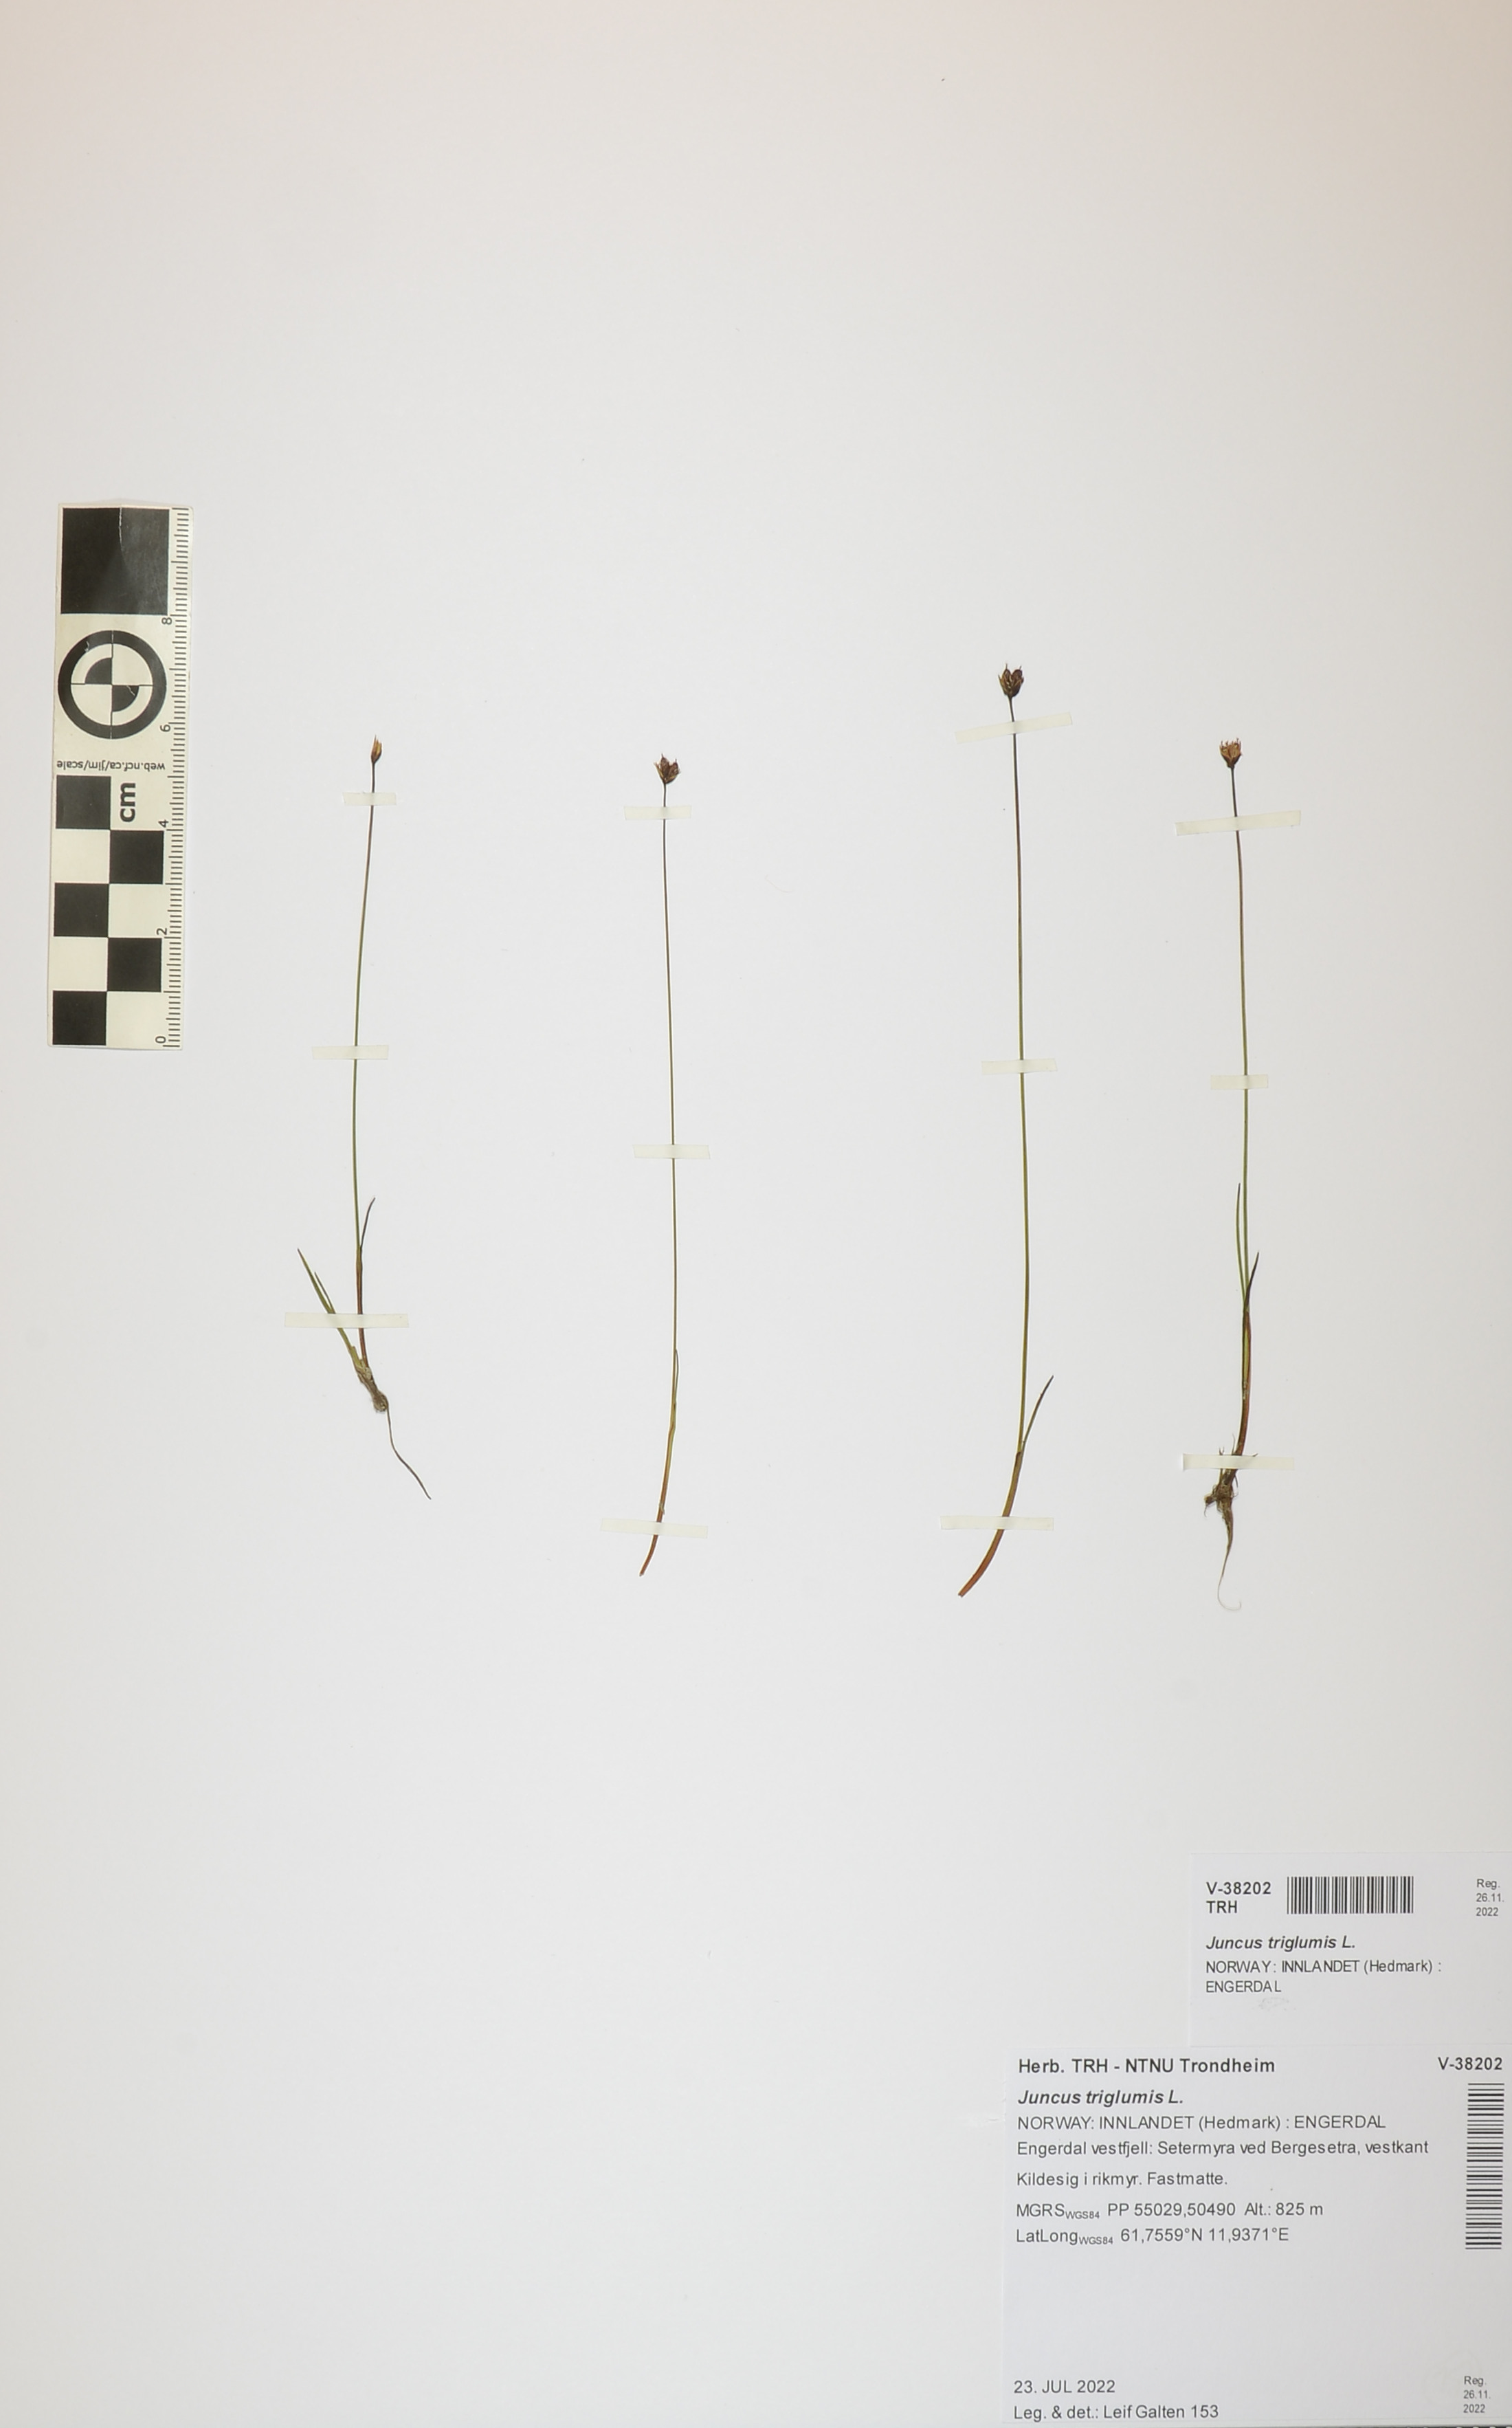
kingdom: Plantae
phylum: Tracheophyta
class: Liliopsida
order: Poales
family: Juncaceae
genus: Juncus
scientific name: Juncus triglumis
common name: Three-flowered rush
